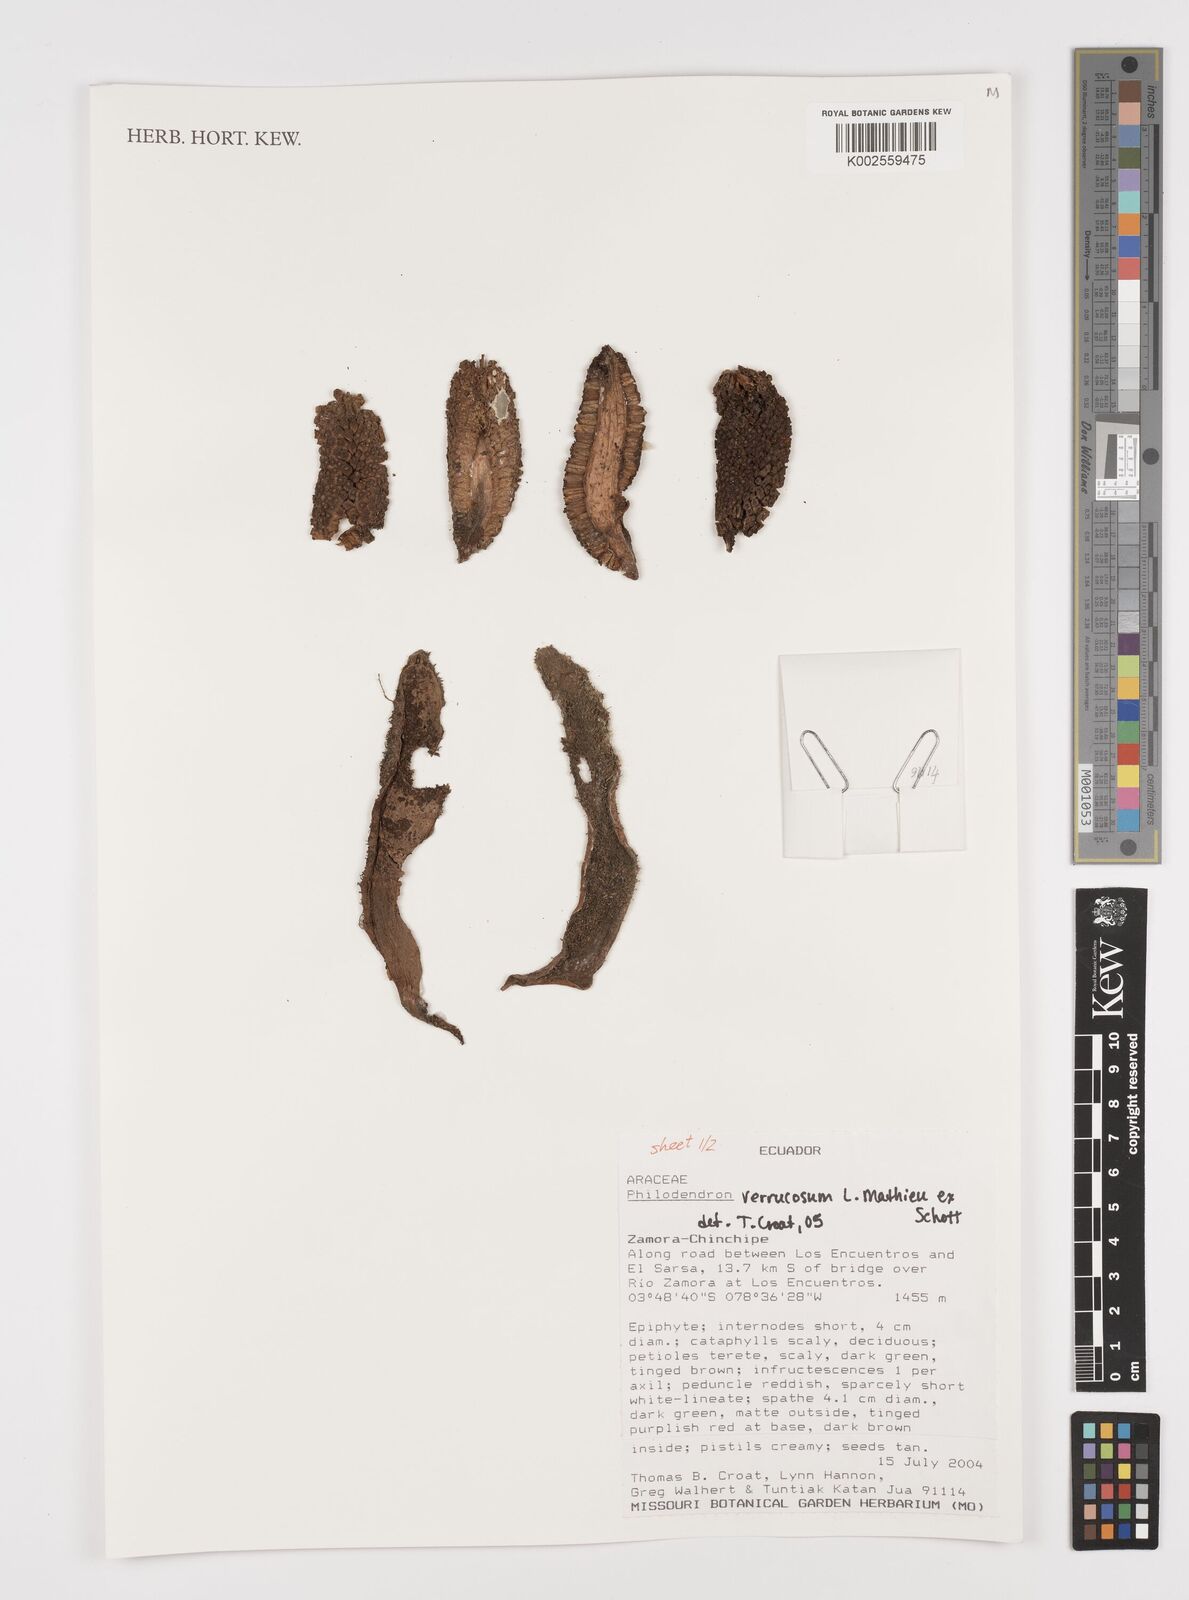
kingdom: Plantae
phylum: Tracheophyta
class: Liliopsida
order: Alismatales
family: Araceae
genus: Philodendron
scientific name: Philodendron verrucosum
